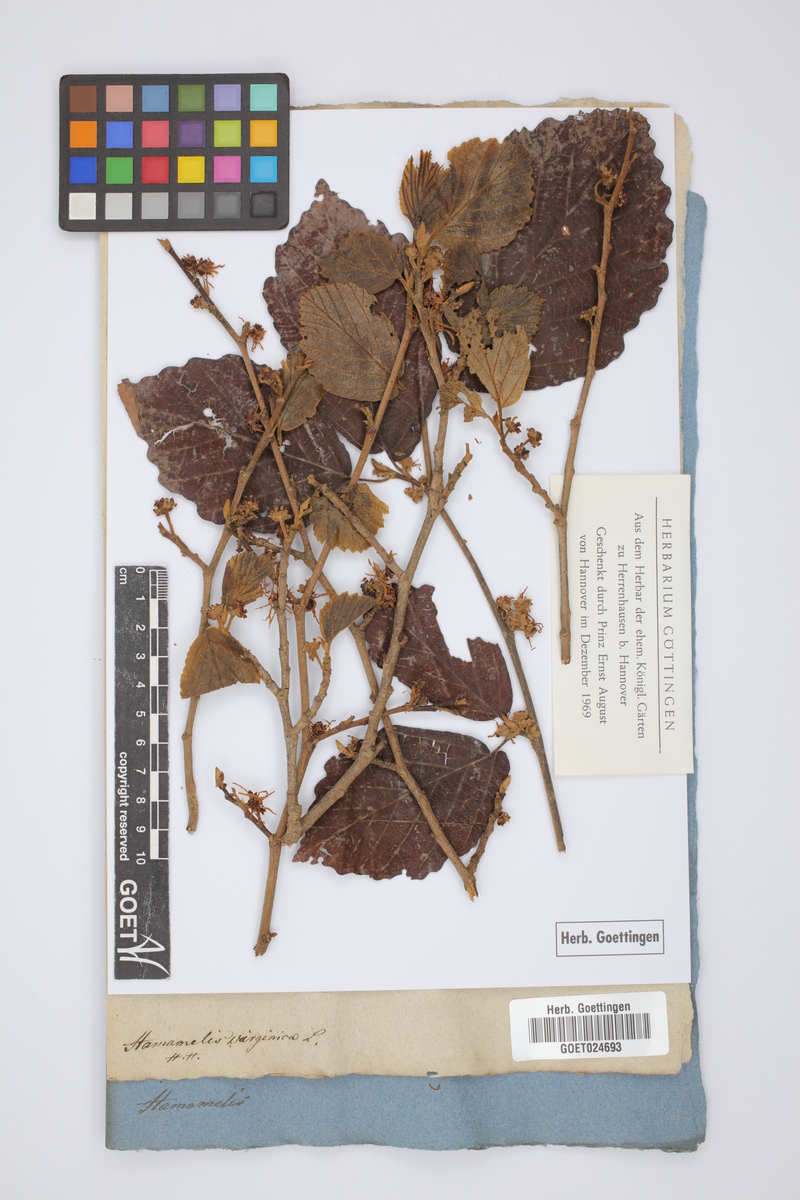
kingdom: Plantae
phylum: Tracheophyta
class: Magnoliopsida
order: Saxifragales
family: Hamamelidaceae
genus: Hamamelis
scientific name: Hamamelis virginiana
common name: Witch-hazel
